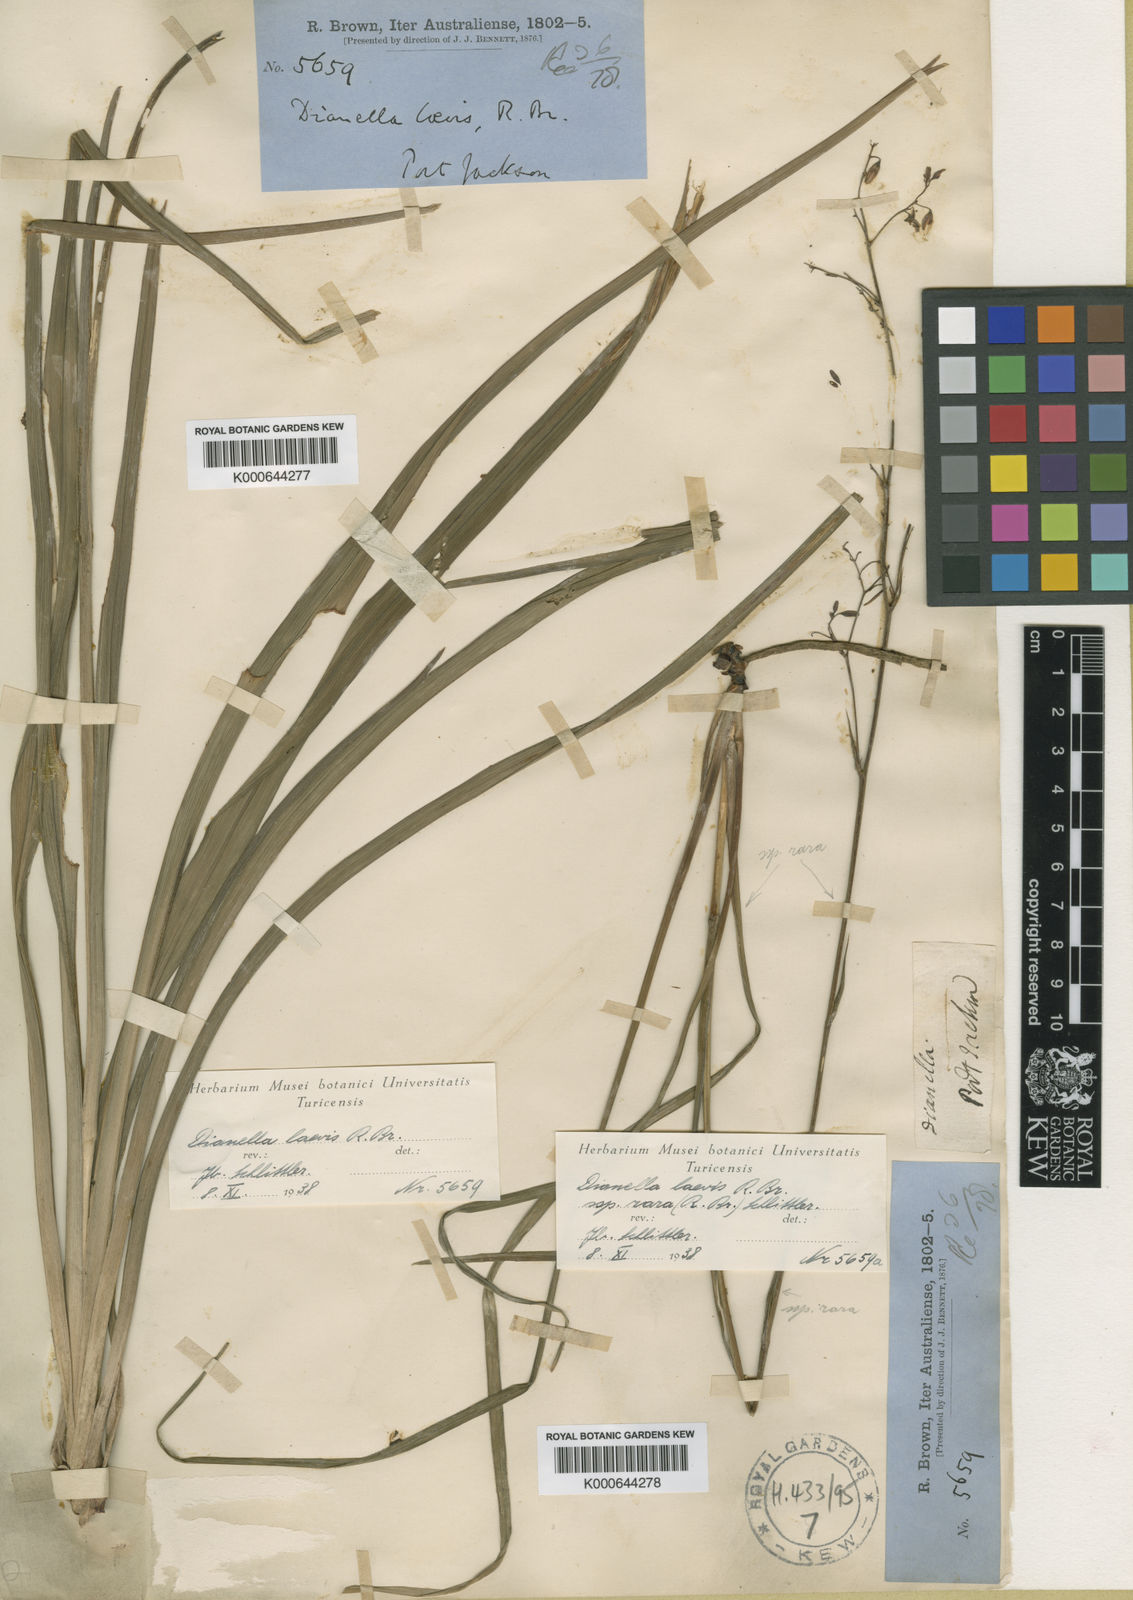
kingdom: Plantae
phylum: Tracheophyta
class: Liliopsida
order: Asparagales
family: Asphodelaceae
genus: Dianella
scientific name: Dianella longifolia
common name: Blue flax-lily
